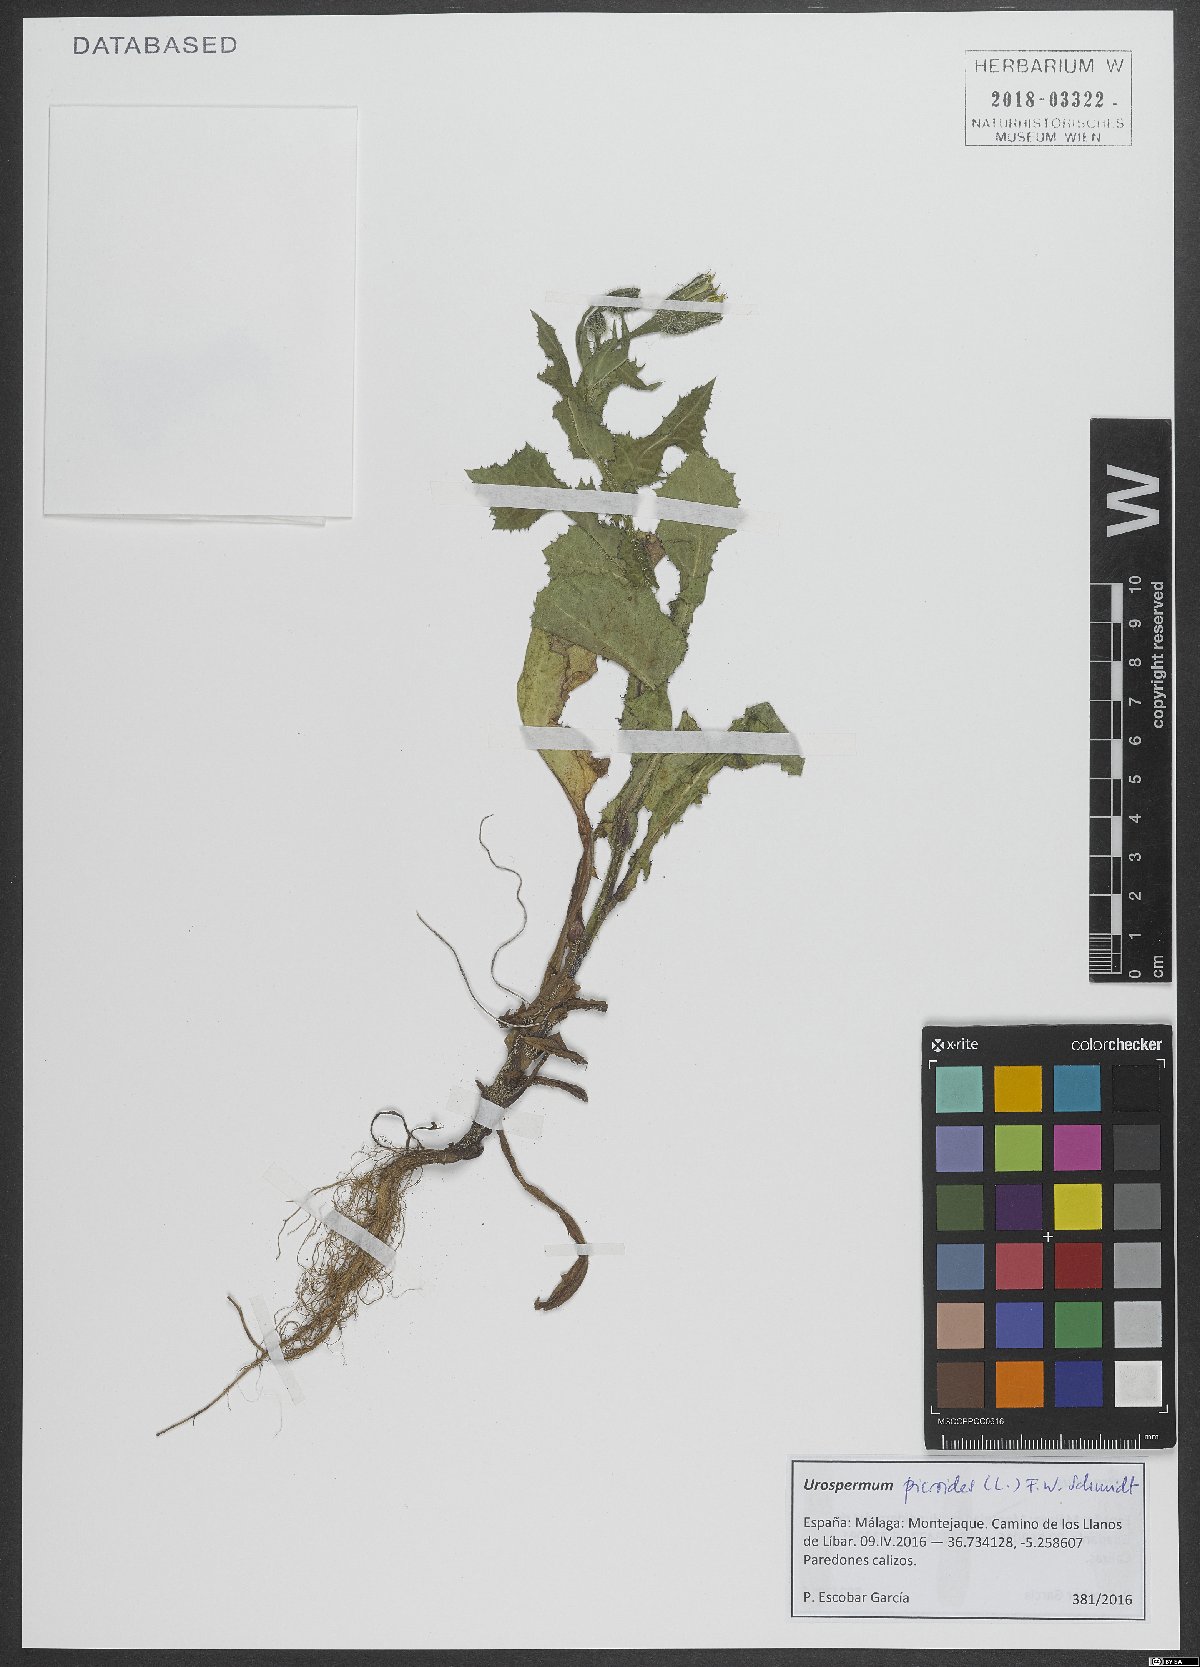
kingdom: Plantae
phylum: Tracheophyta
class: Magnoliopsida
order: Asterales
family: Asteraceae
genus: Urospermum
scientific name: Urospermum picroides
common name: False hawkbit
